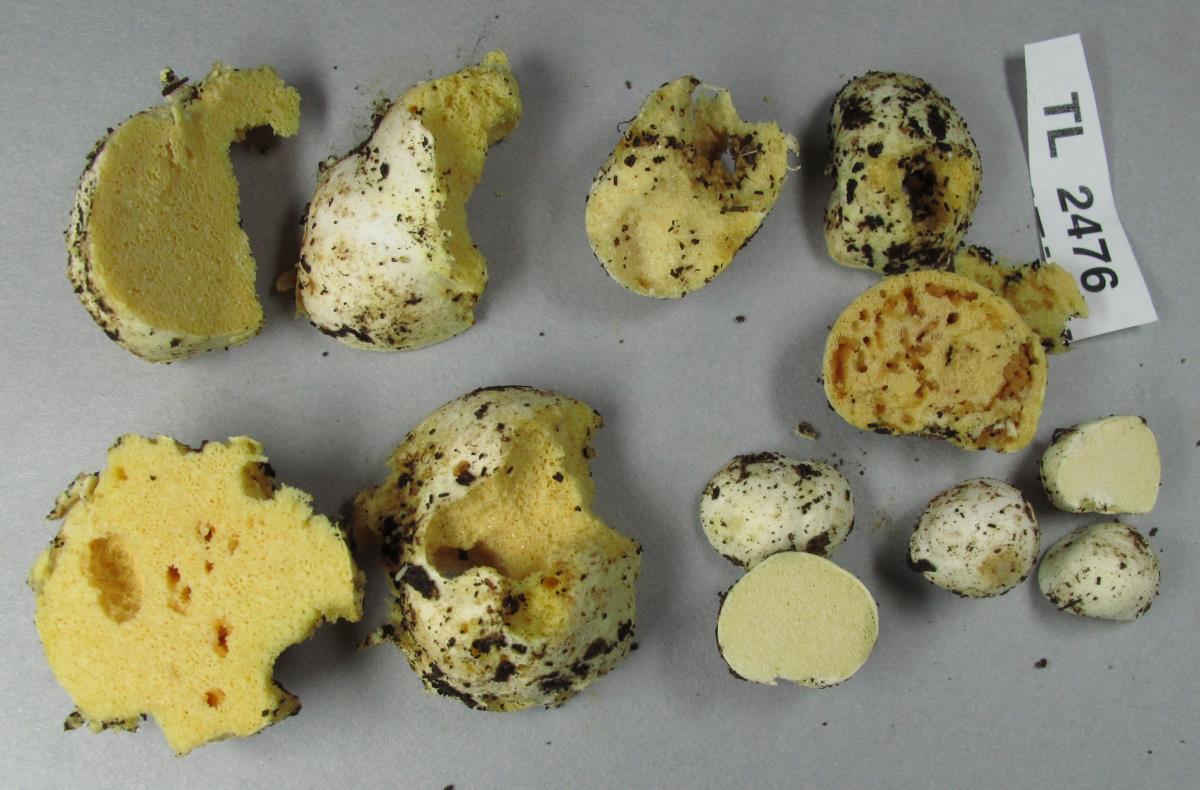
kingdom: Fungi
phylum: Basidiomycota
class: Agaricomycetes
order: Russulales
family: Russulaceae
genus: Russula
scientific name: Russula osphranticarpa
